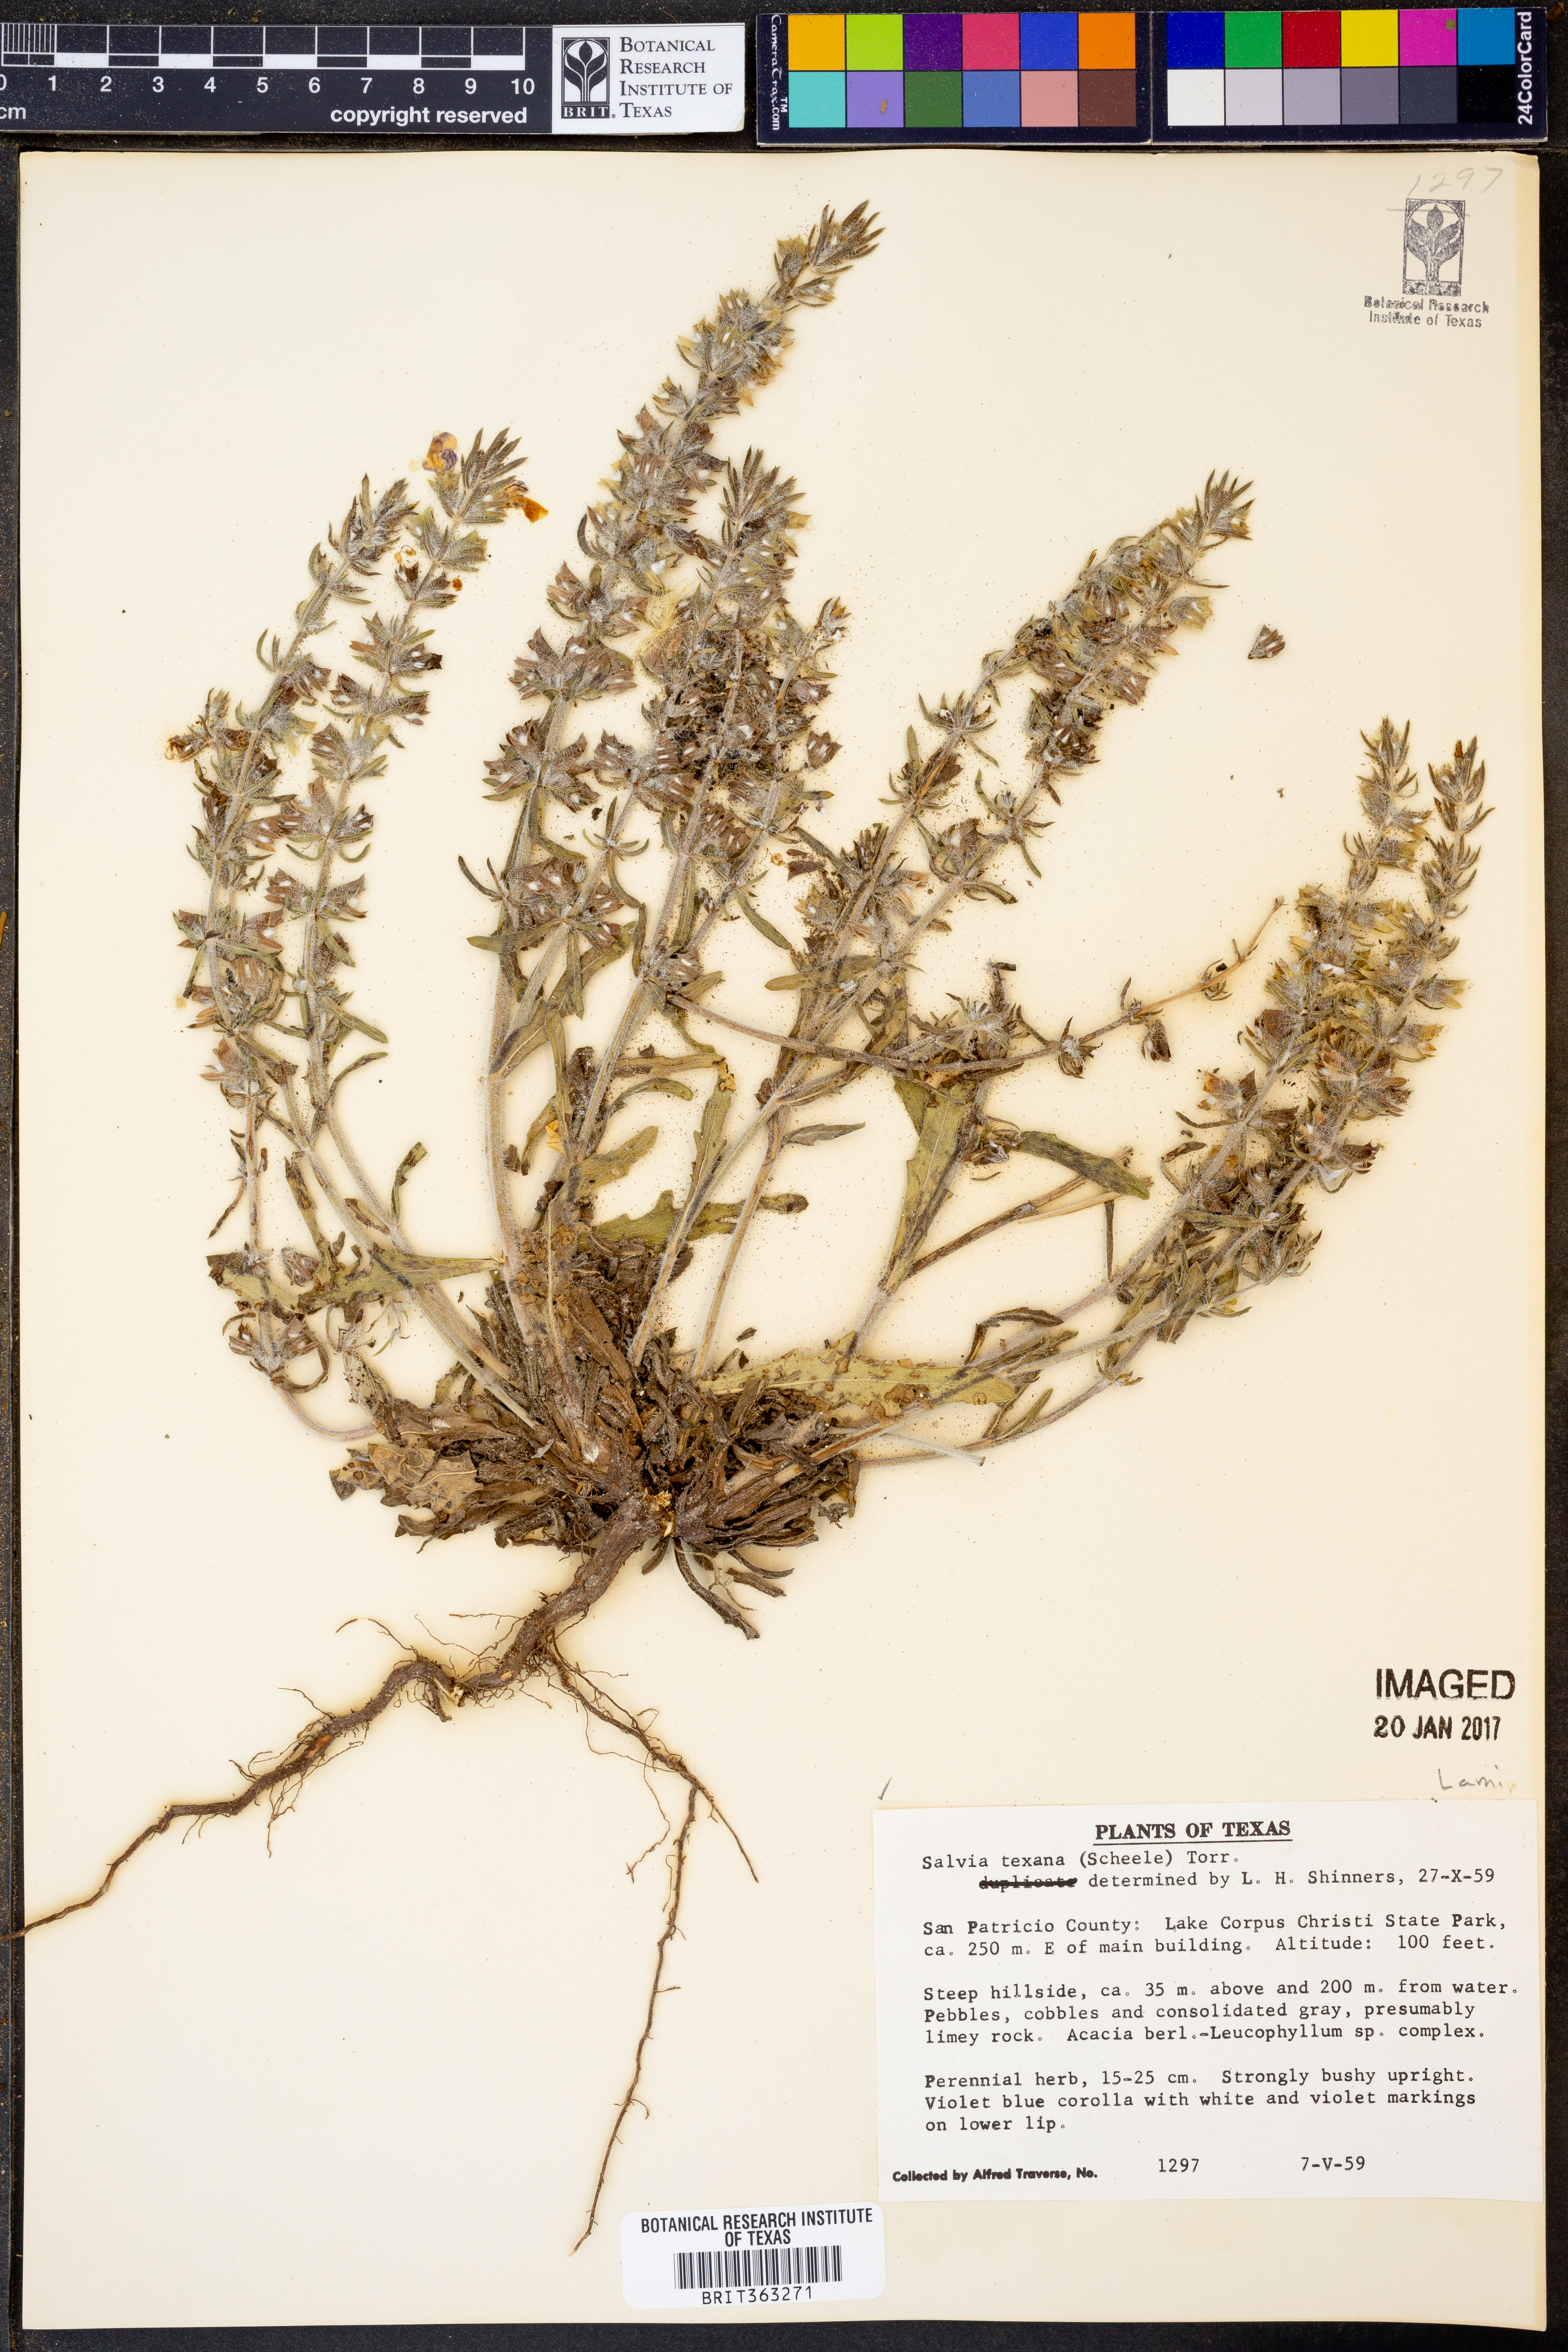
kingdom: Plantae
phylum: Tracheophyta
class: Magnoliopsida
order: Lamiales
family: Lamiaceae
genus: Salvia
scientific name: Salvia texana
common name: Texas sage
